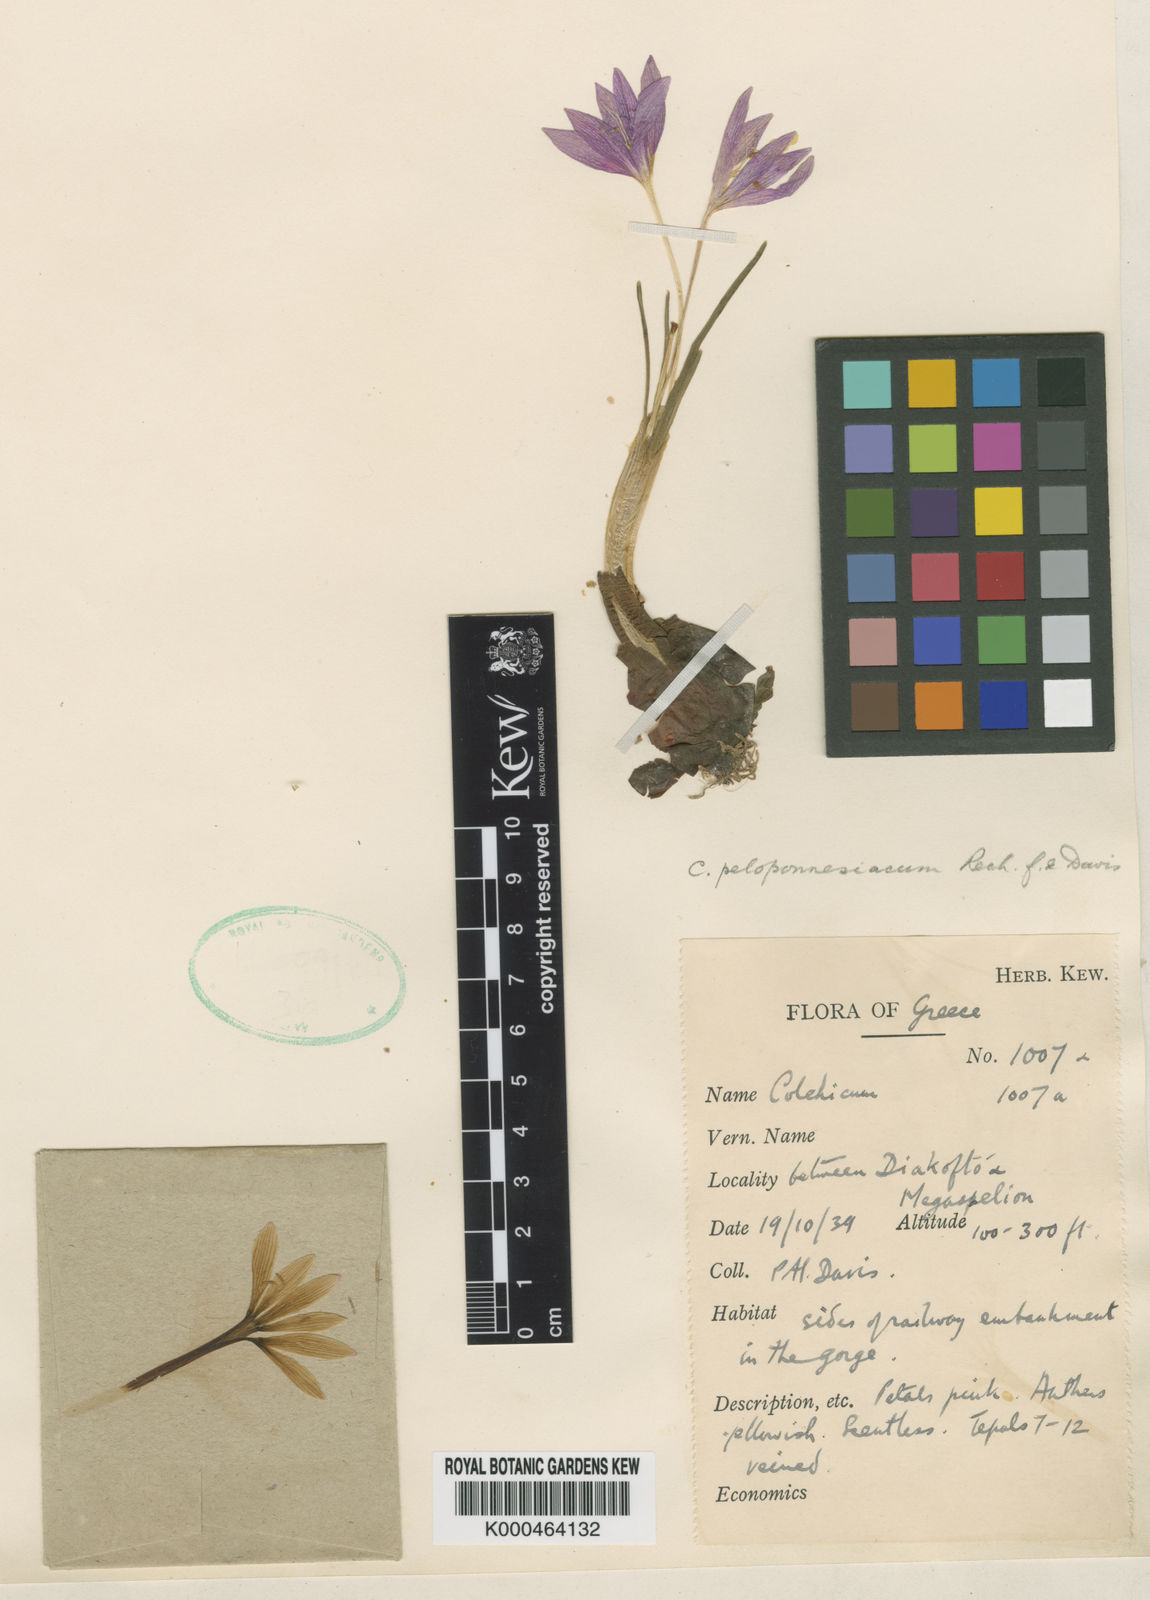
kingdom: Plantae
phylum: Tracheophyta
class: Liliopsida
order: Liliales
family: Colchicaceae
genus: Colchicum
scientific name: Colchicum peloponnesiacum
